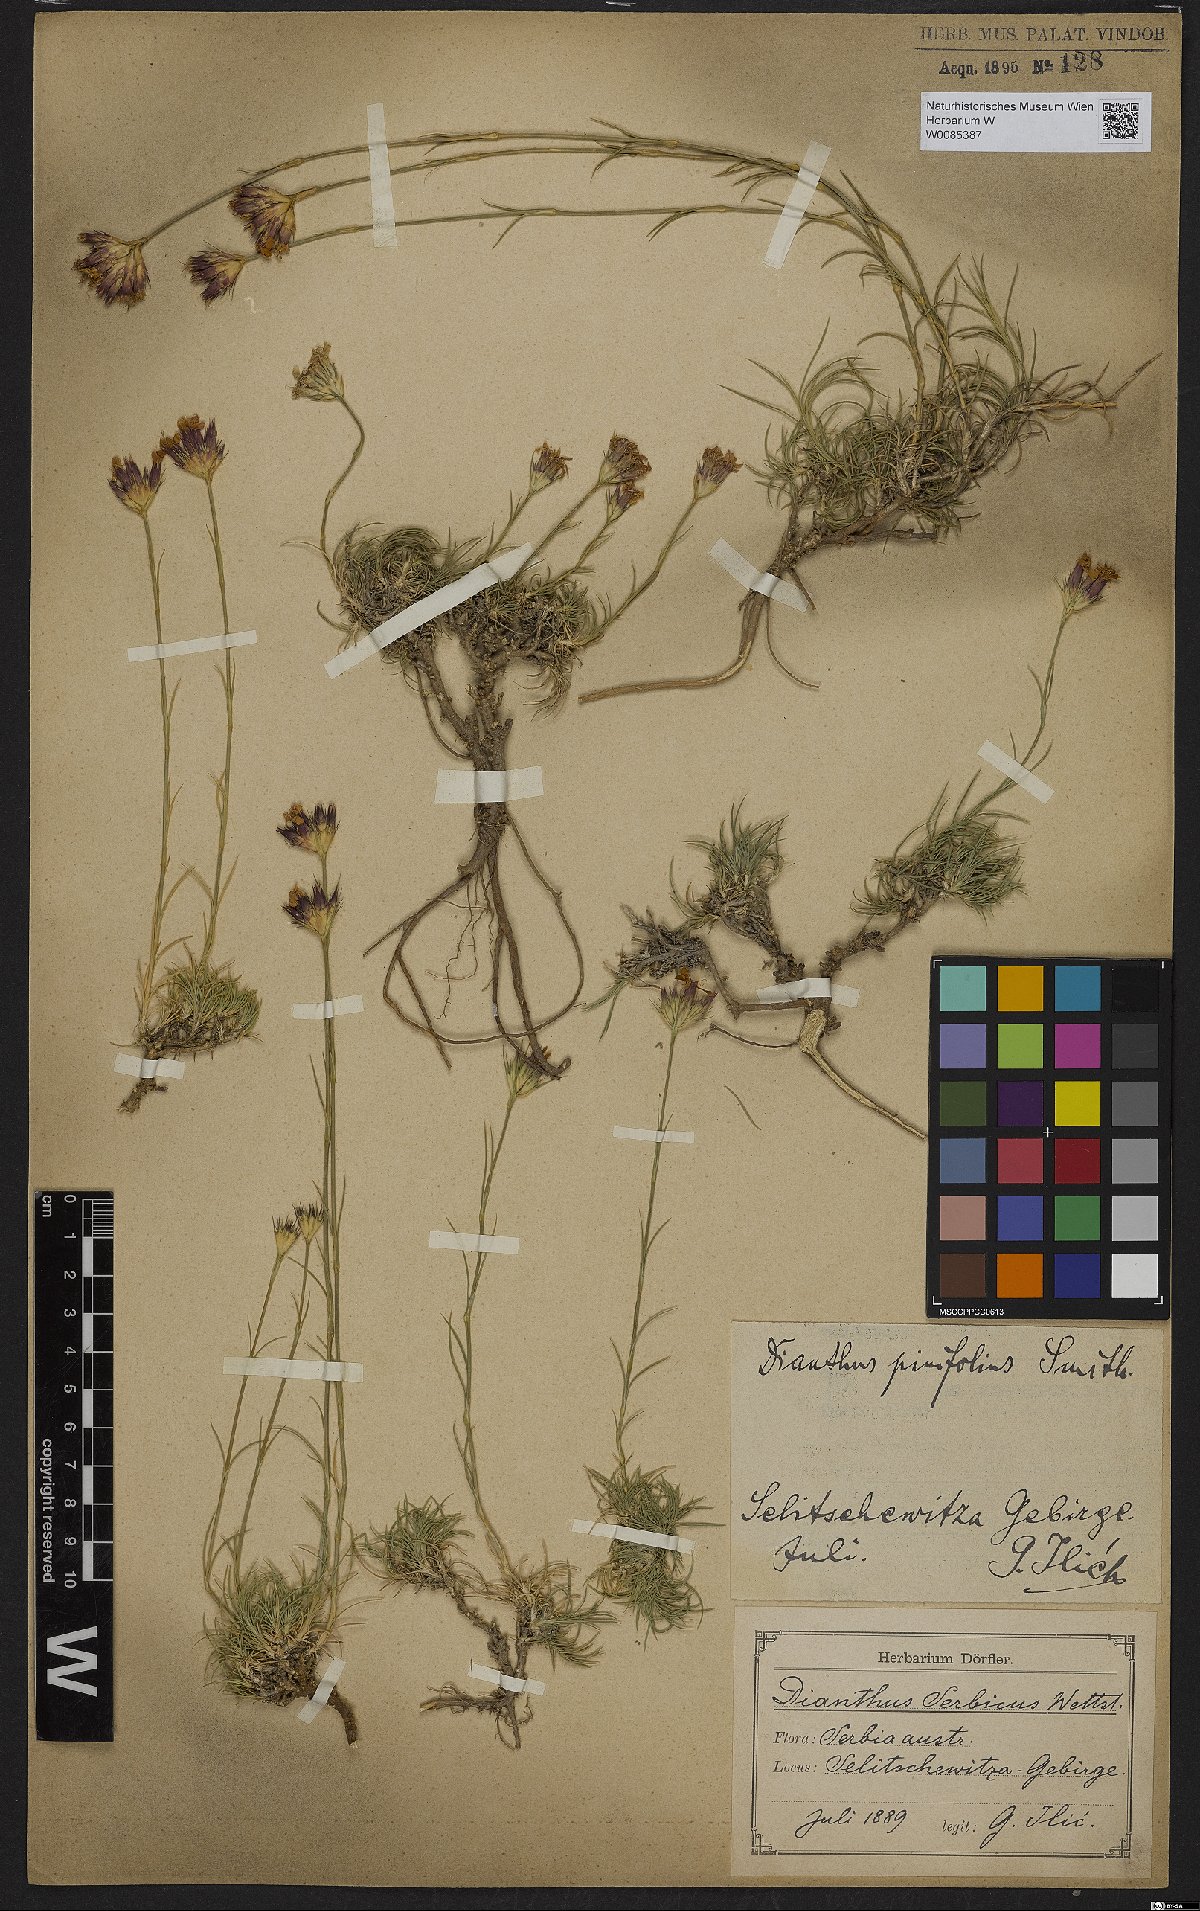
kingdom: Plantae
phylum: Tracheophyta
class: Magnoliopsida
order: Caryophyllales
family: Caryophyllaceae
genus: Dianthus
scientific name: Dianthus pinifolius
